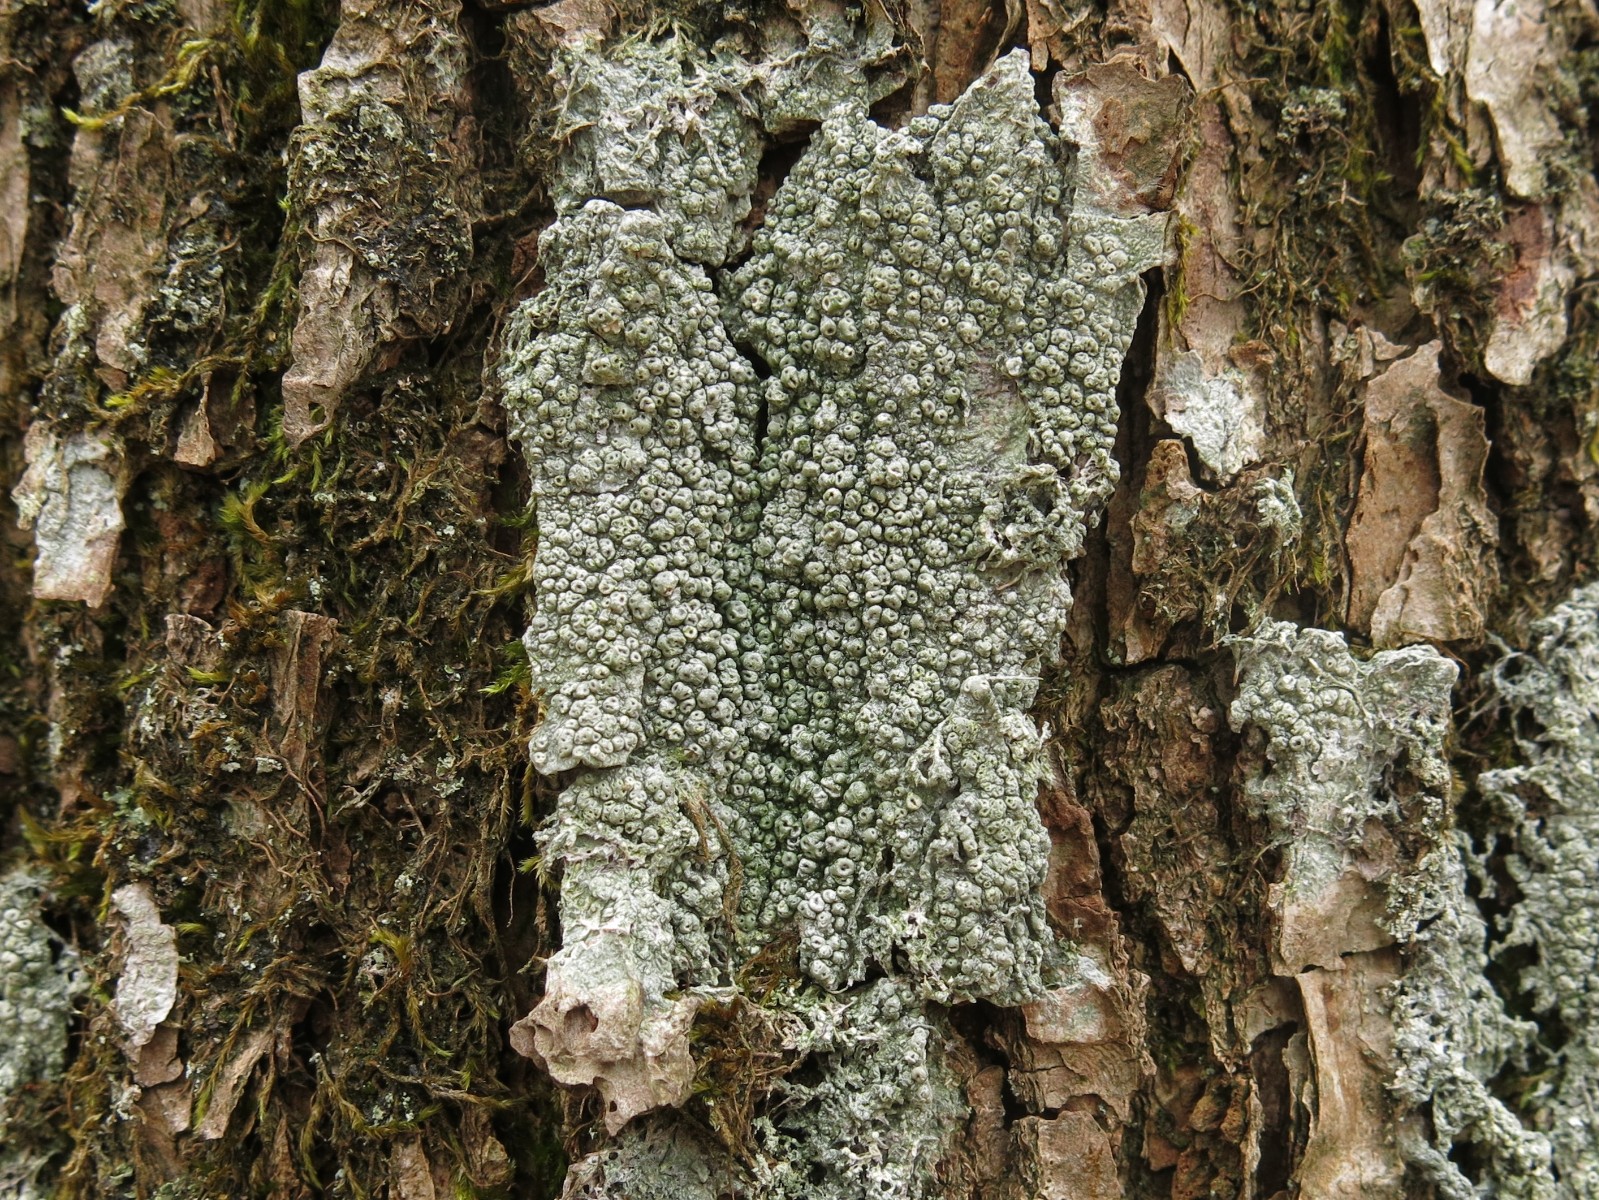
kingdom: Fungi
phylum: Ascomycota
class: Lecanoromycetes
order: Pertusariales
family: Pertusariaceae
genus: Pertusaria
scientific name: Pertusaria hymenea
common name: åben prikvortelav
